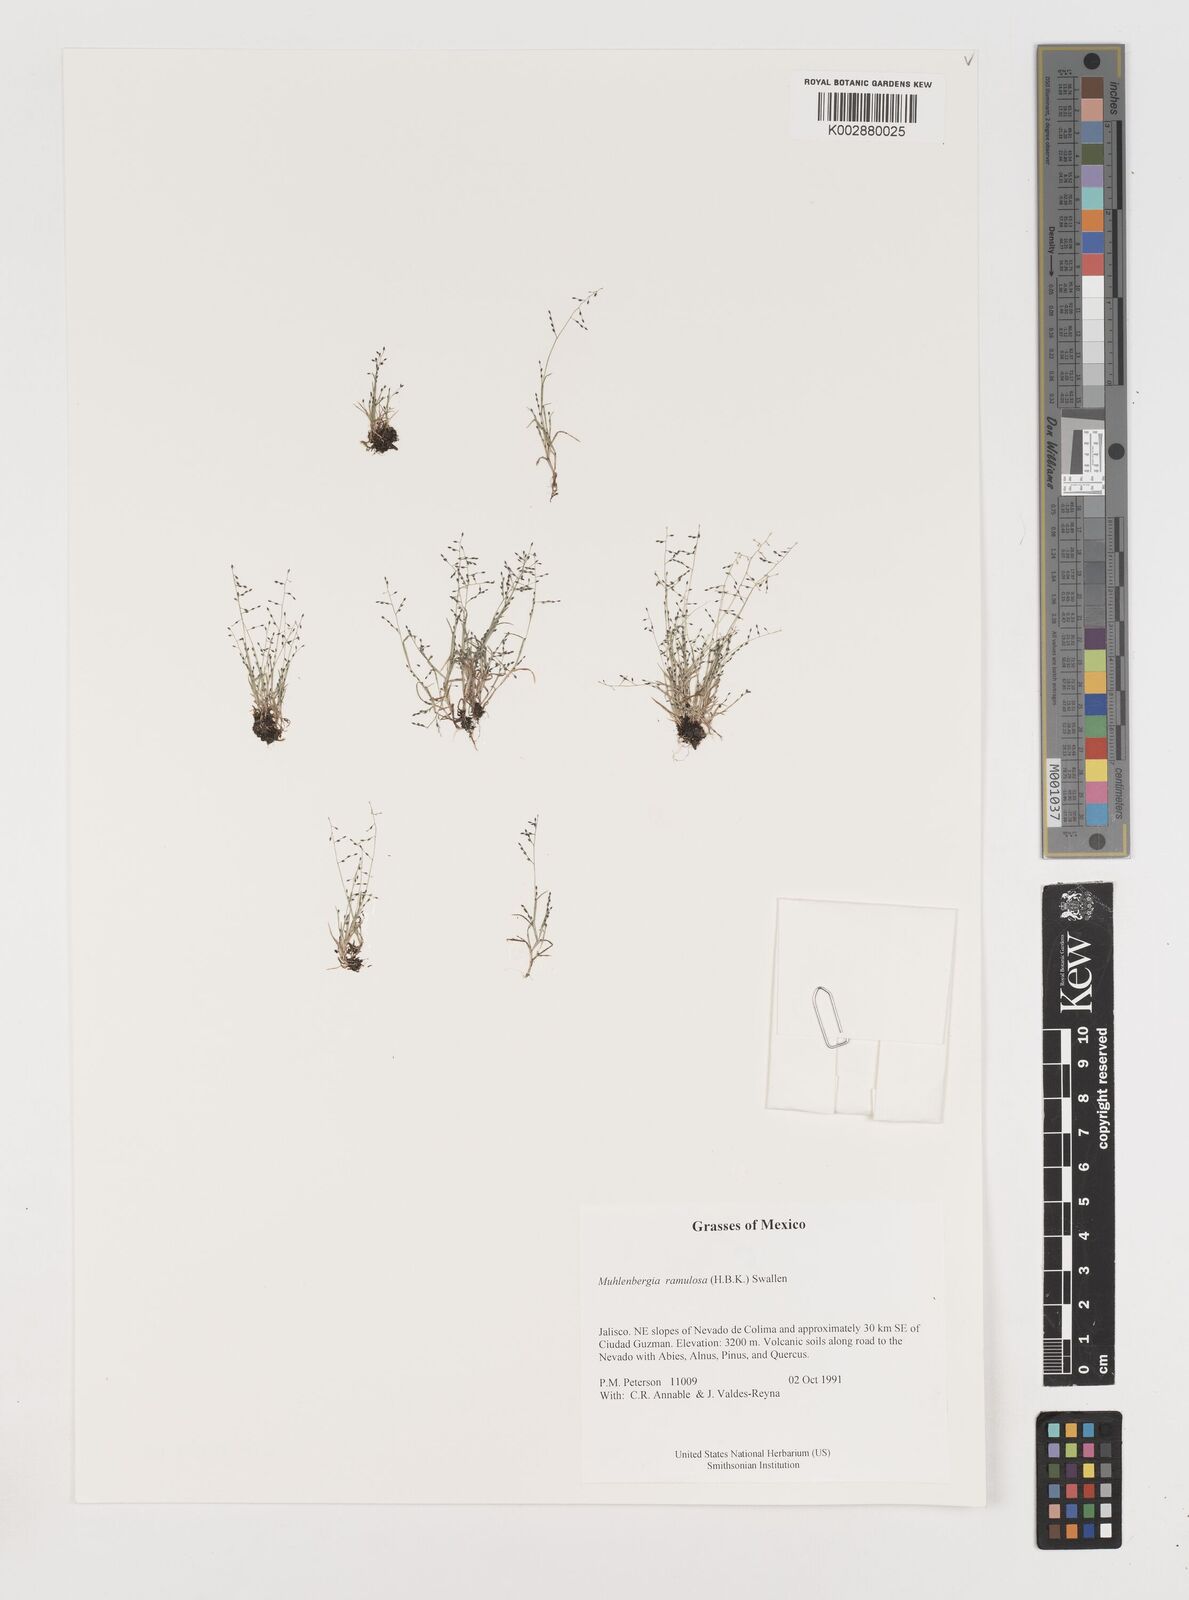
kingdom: Plantae
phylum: Tracheophyta
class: Liliopsida
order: Poales
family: Poaceae
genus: Muhlenbergia
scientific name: Muhlenbergia ramulosa
